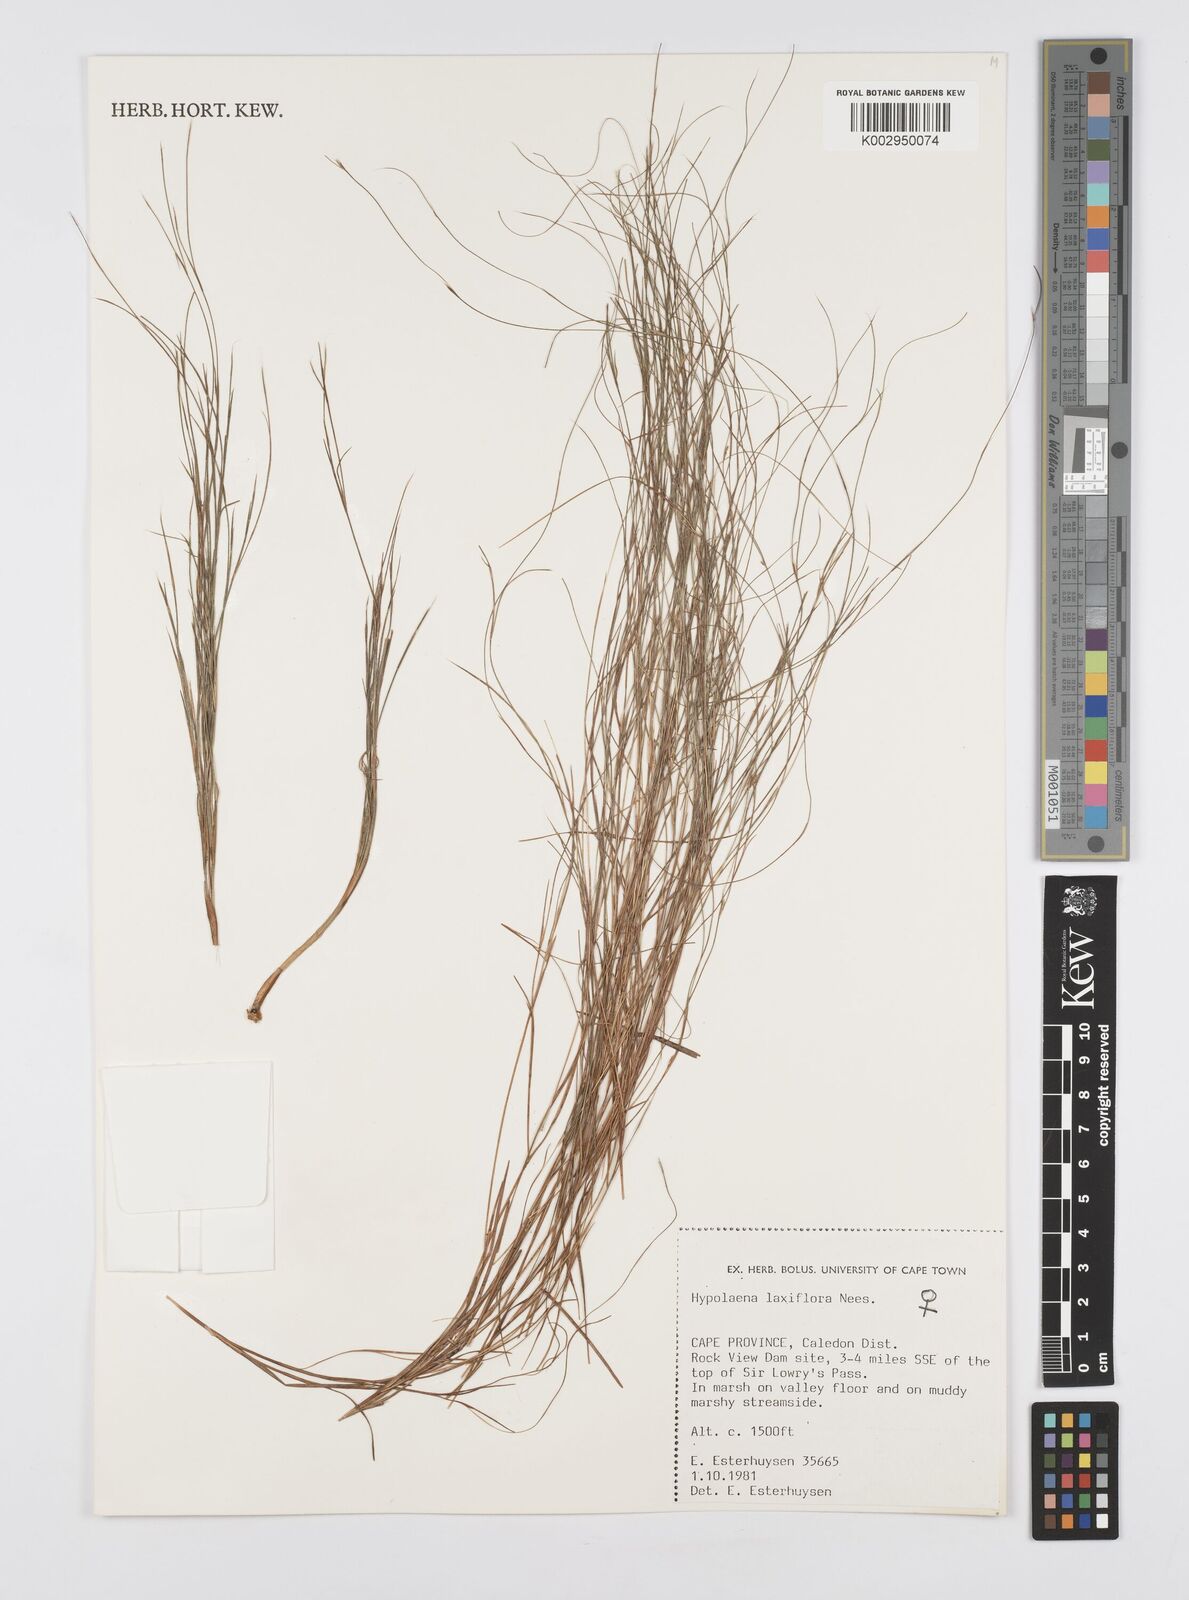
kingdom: Plantae
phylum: Tracheophyta
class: Liliopsida
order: Poales
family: Restionaceae
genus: Anthochortus
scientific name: Anthochortus laxiflorus
